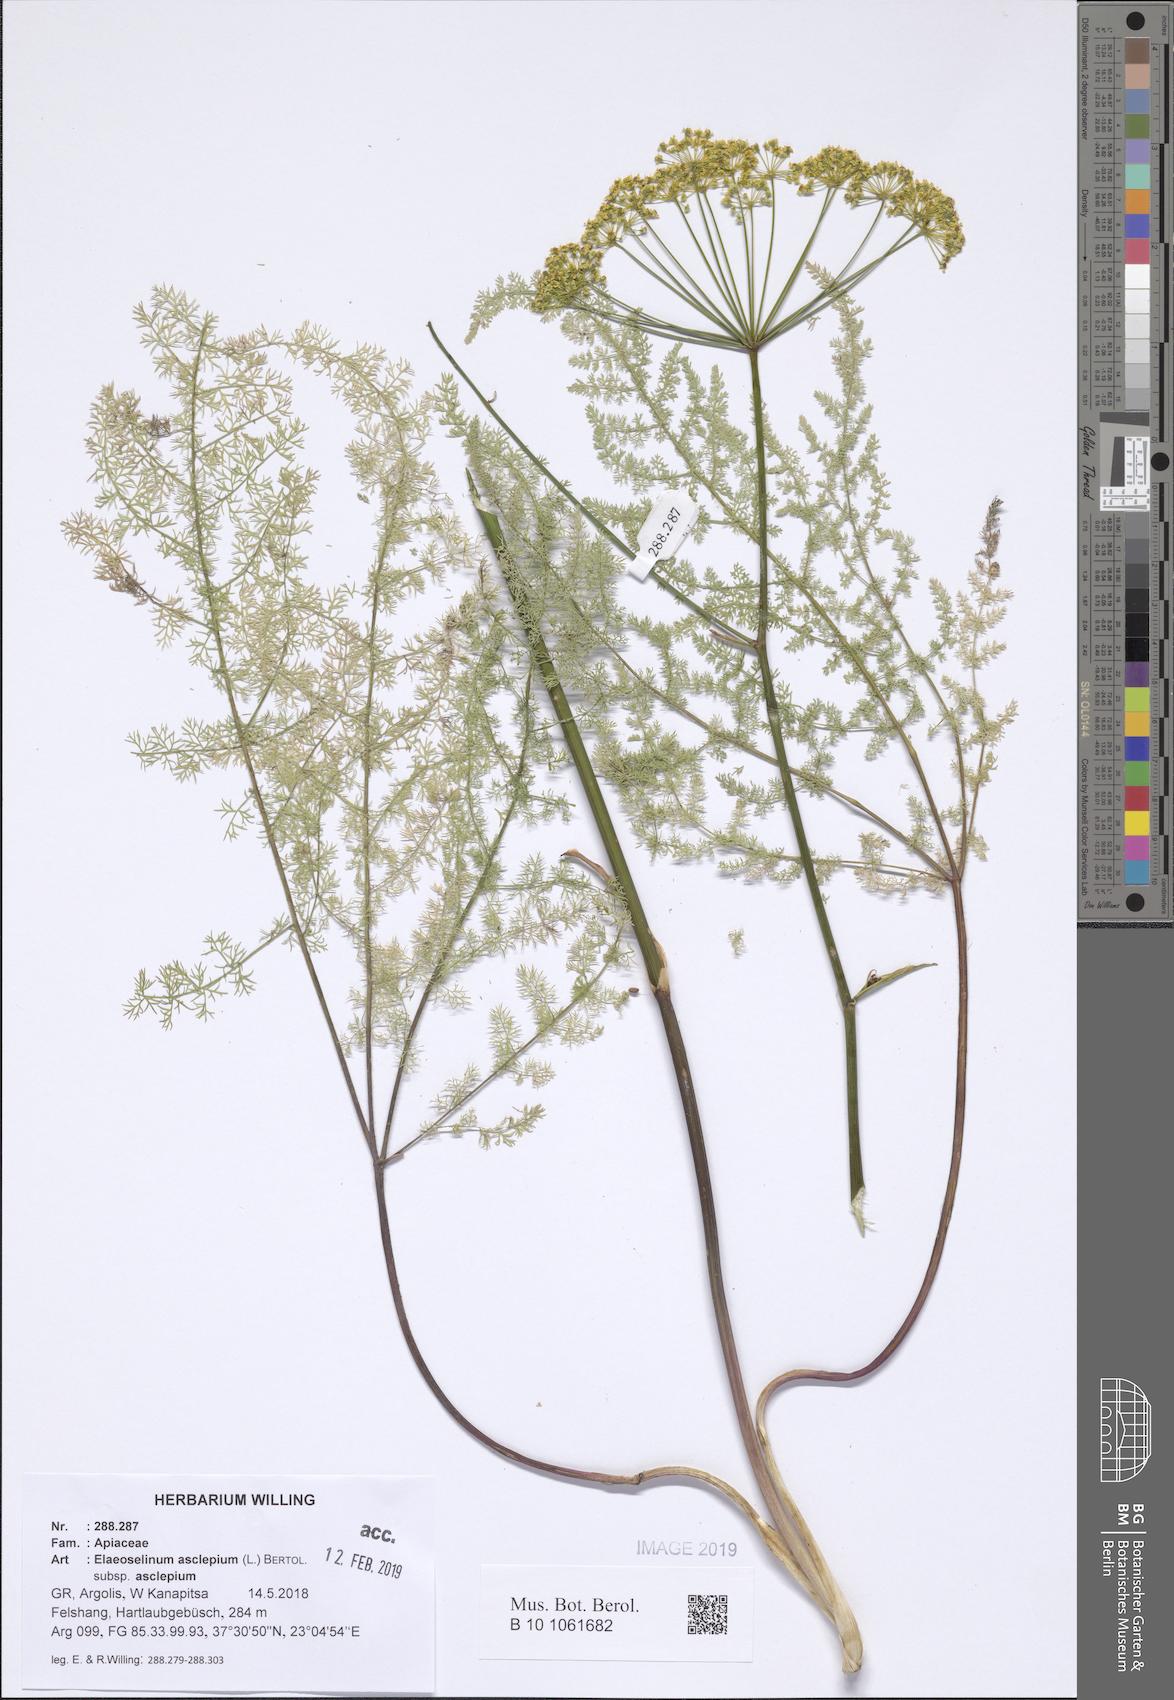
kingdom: Plantae
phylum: Tracheophyta
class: Magnoliopsida
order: Apiales
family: Apiaceae
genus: Thapsia
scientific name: Thapsia asclepium
